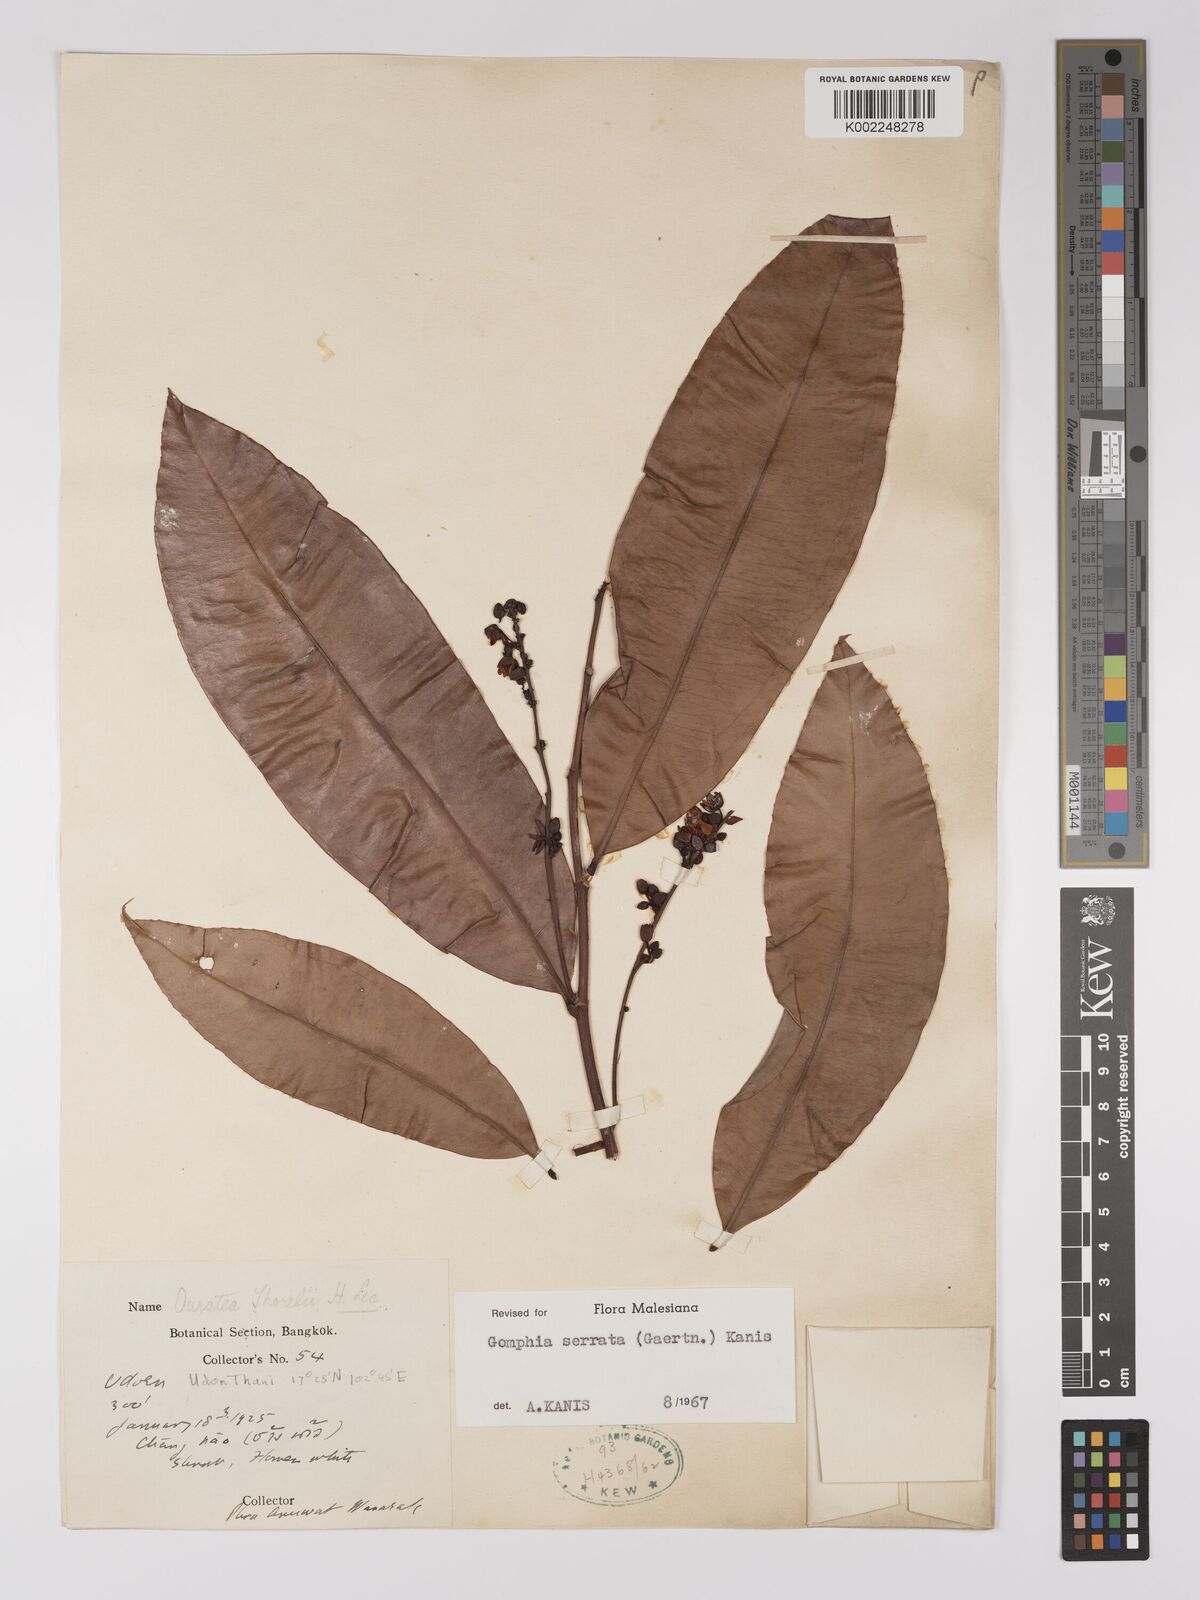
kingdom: Plantae
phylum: Tracheophyta
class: Magnoliopsida
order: Malpighiales
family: Ochnaceae
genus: Gomphia
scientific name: Gomphia serrata
